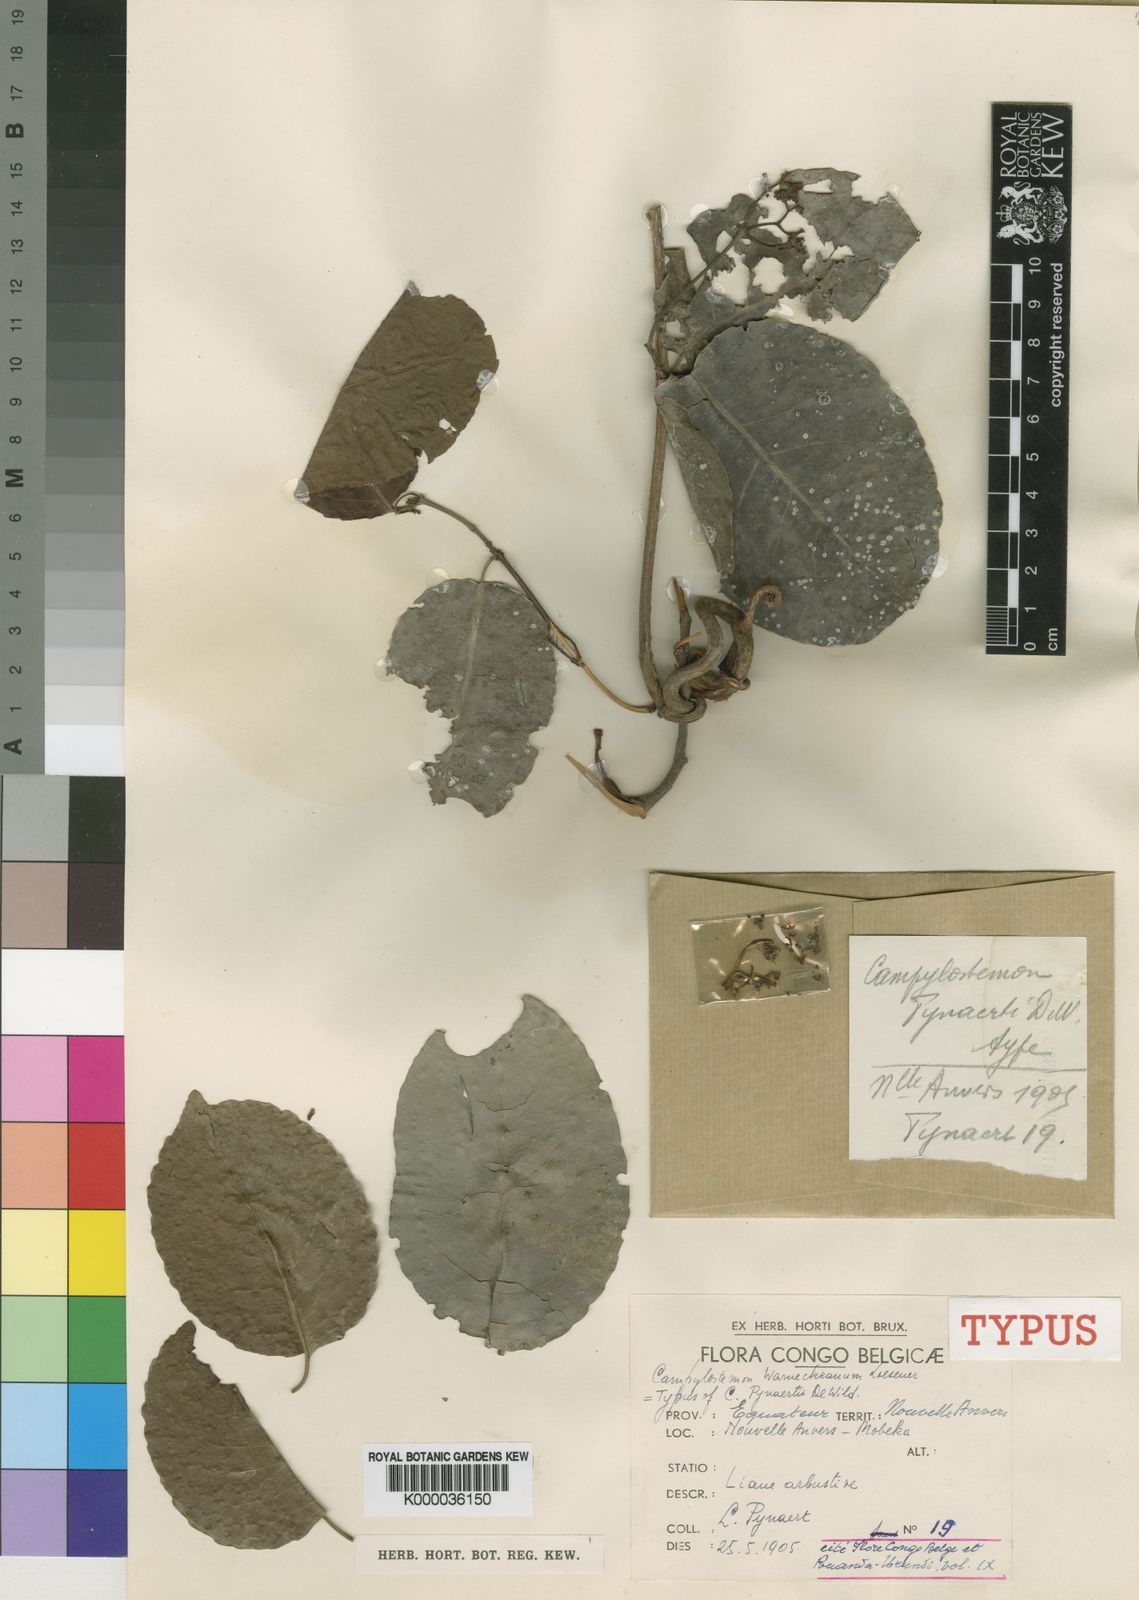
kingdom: Plantae
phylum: Tracheophyta
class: Magnoliopsida
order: Celastrales
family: Celastraceae
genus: Campylostemon
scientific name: Campylostemon
